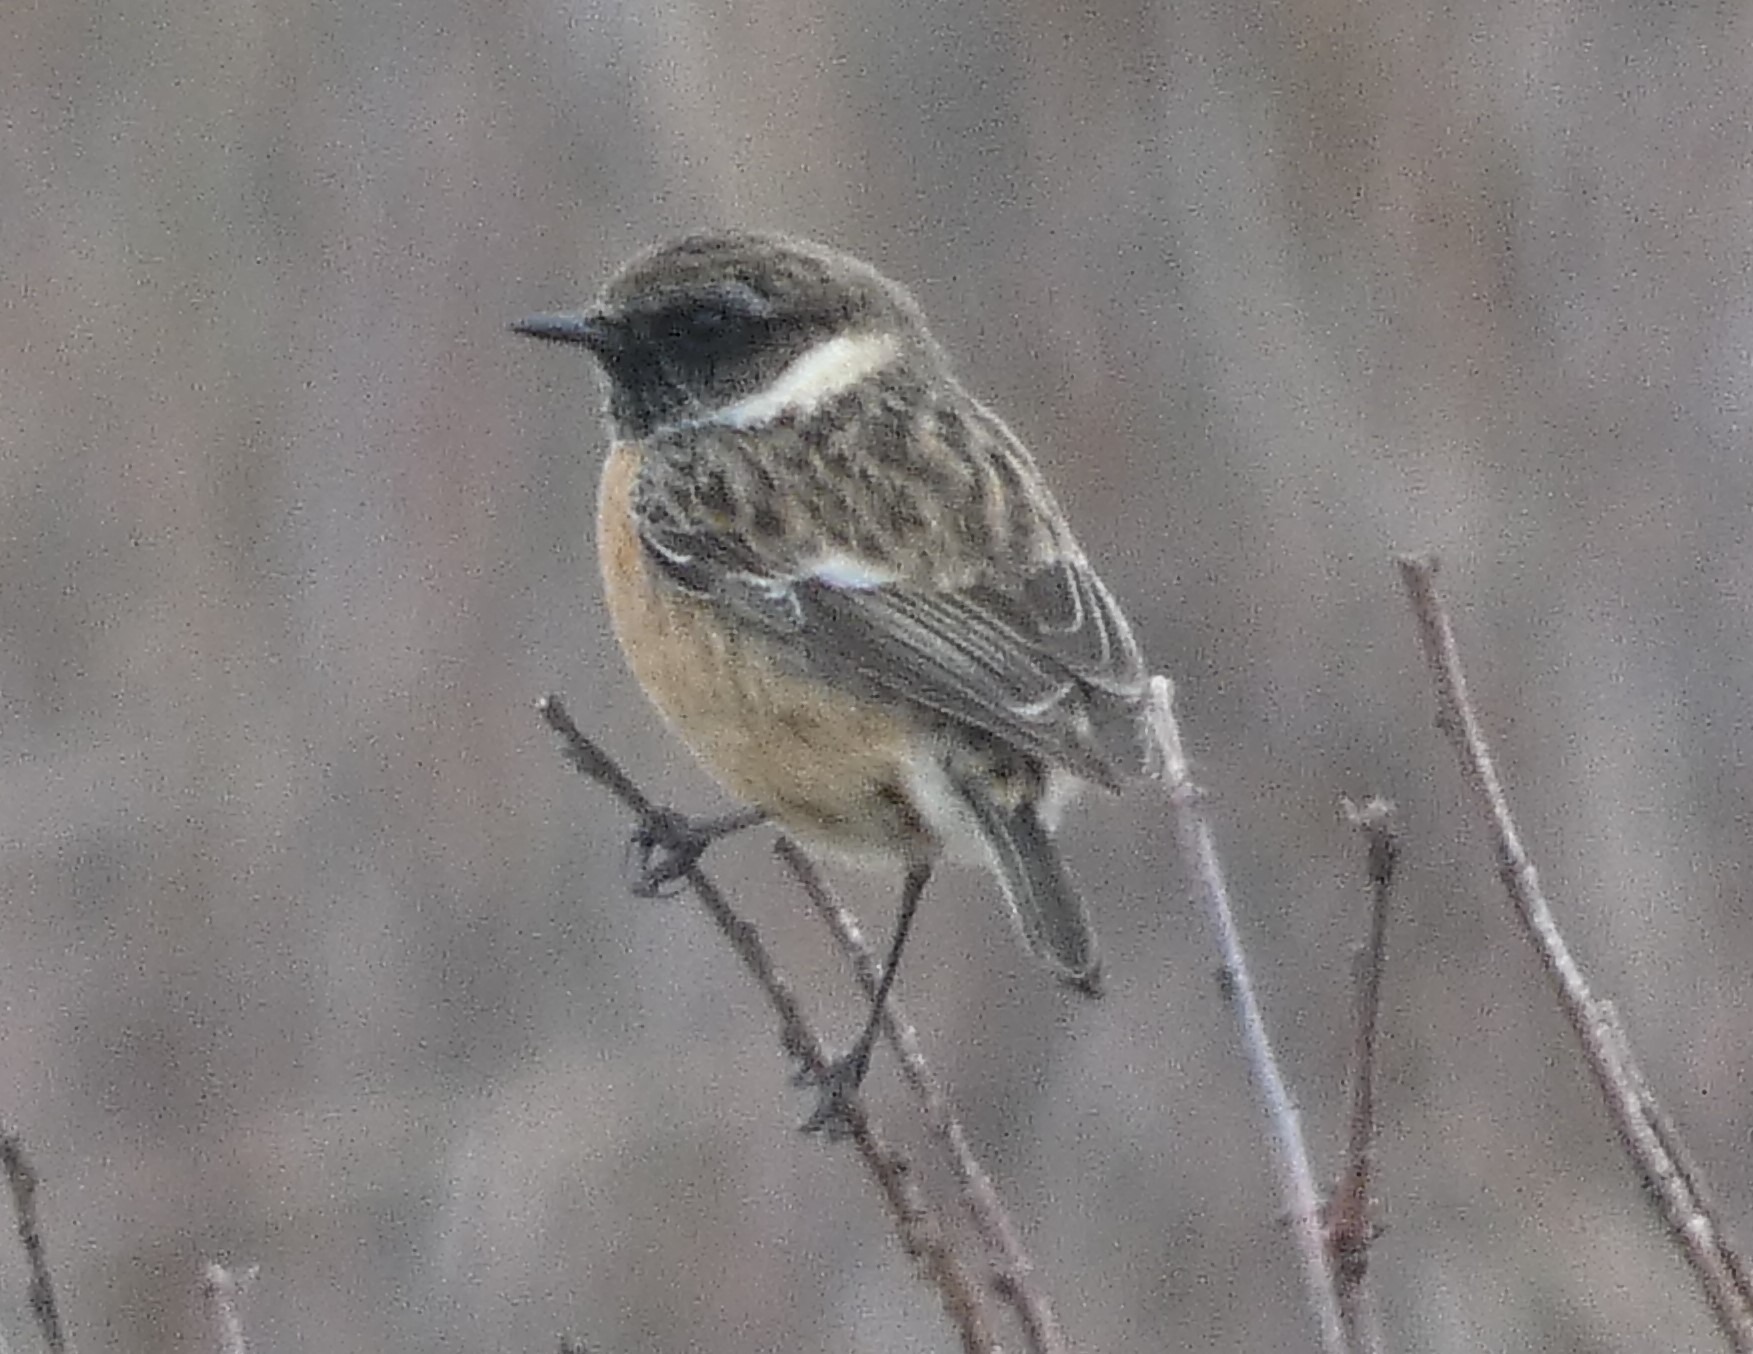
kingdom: Animalia
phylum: Chordata
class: Aves
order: Passeriformes
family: Muscicapidae
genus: Saxicola
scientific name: Saxicola rubicola
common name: Sortstrubet bynkefugl
